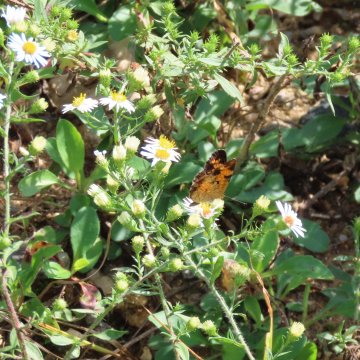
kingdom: Animalia
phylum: Arthropoda
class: Insecta
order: Lepidoptera
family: Nymphalidae
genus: Phyciodes
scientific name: Phyciodes tharos
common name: Pearl Crescent
